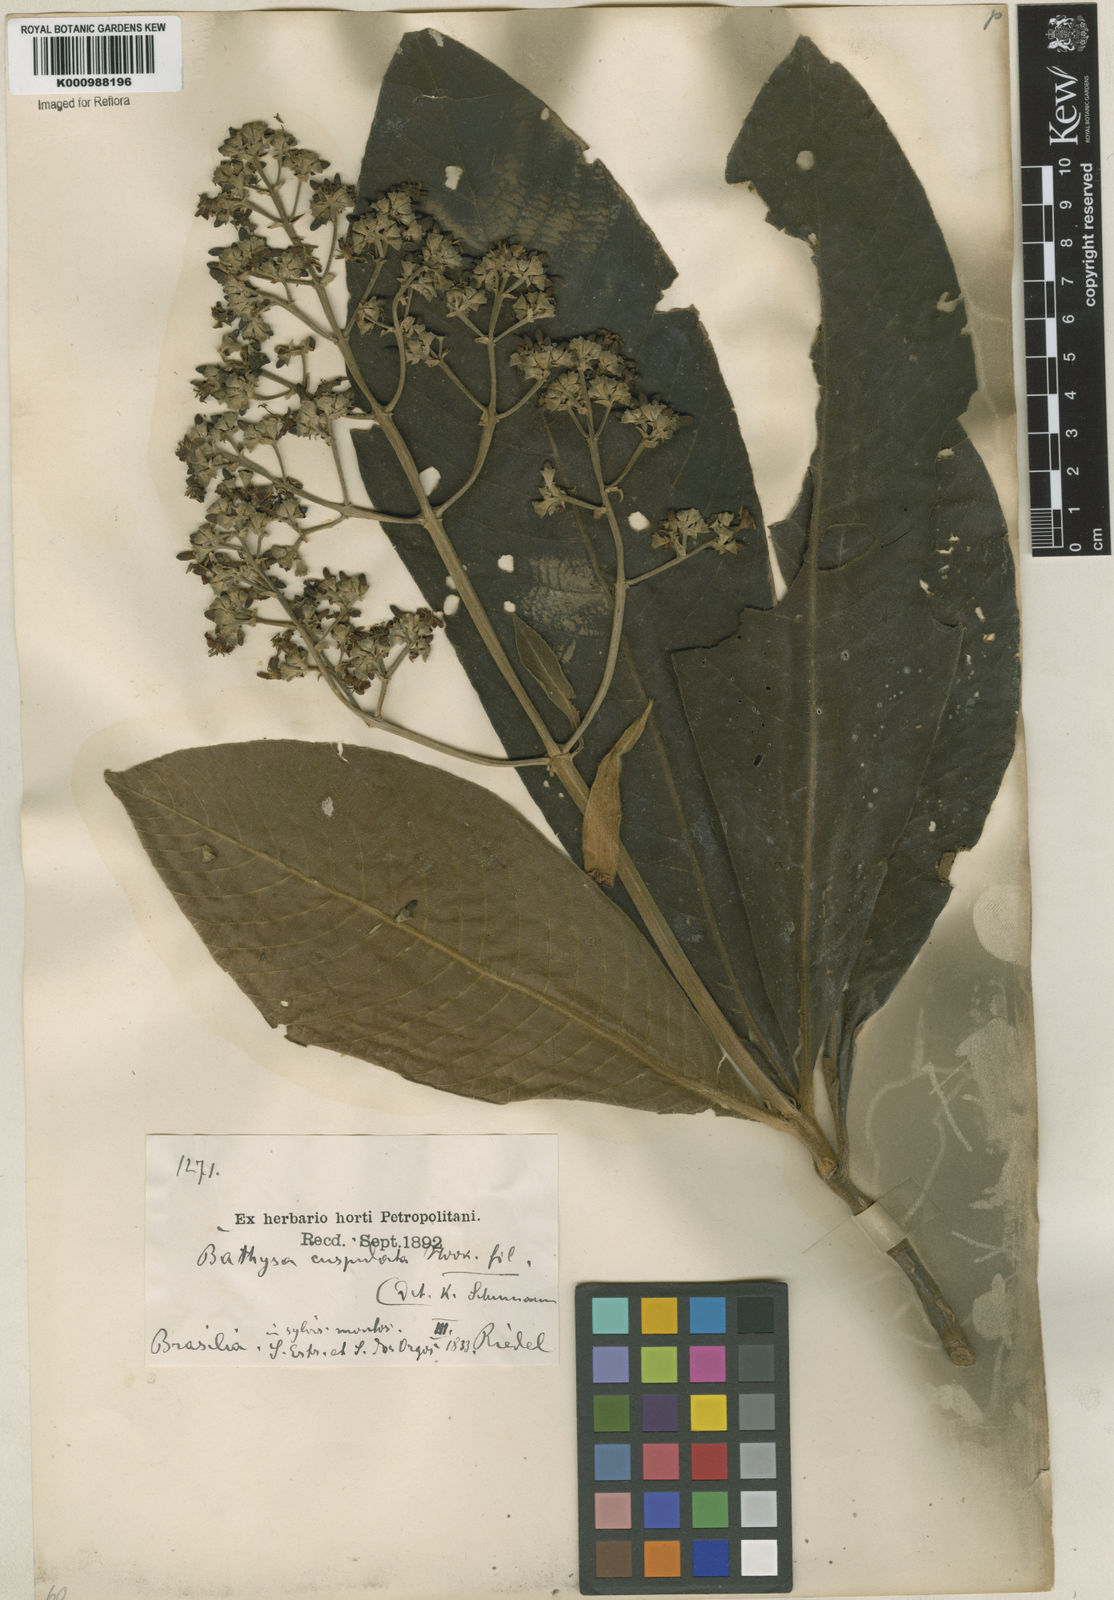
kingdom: Plantae
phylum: Tracheophyta
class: Magnoliopsida
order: Gentianales
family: Rubiaceae
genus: Schizocalyx
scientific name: Schizocalyx cuspidatus
